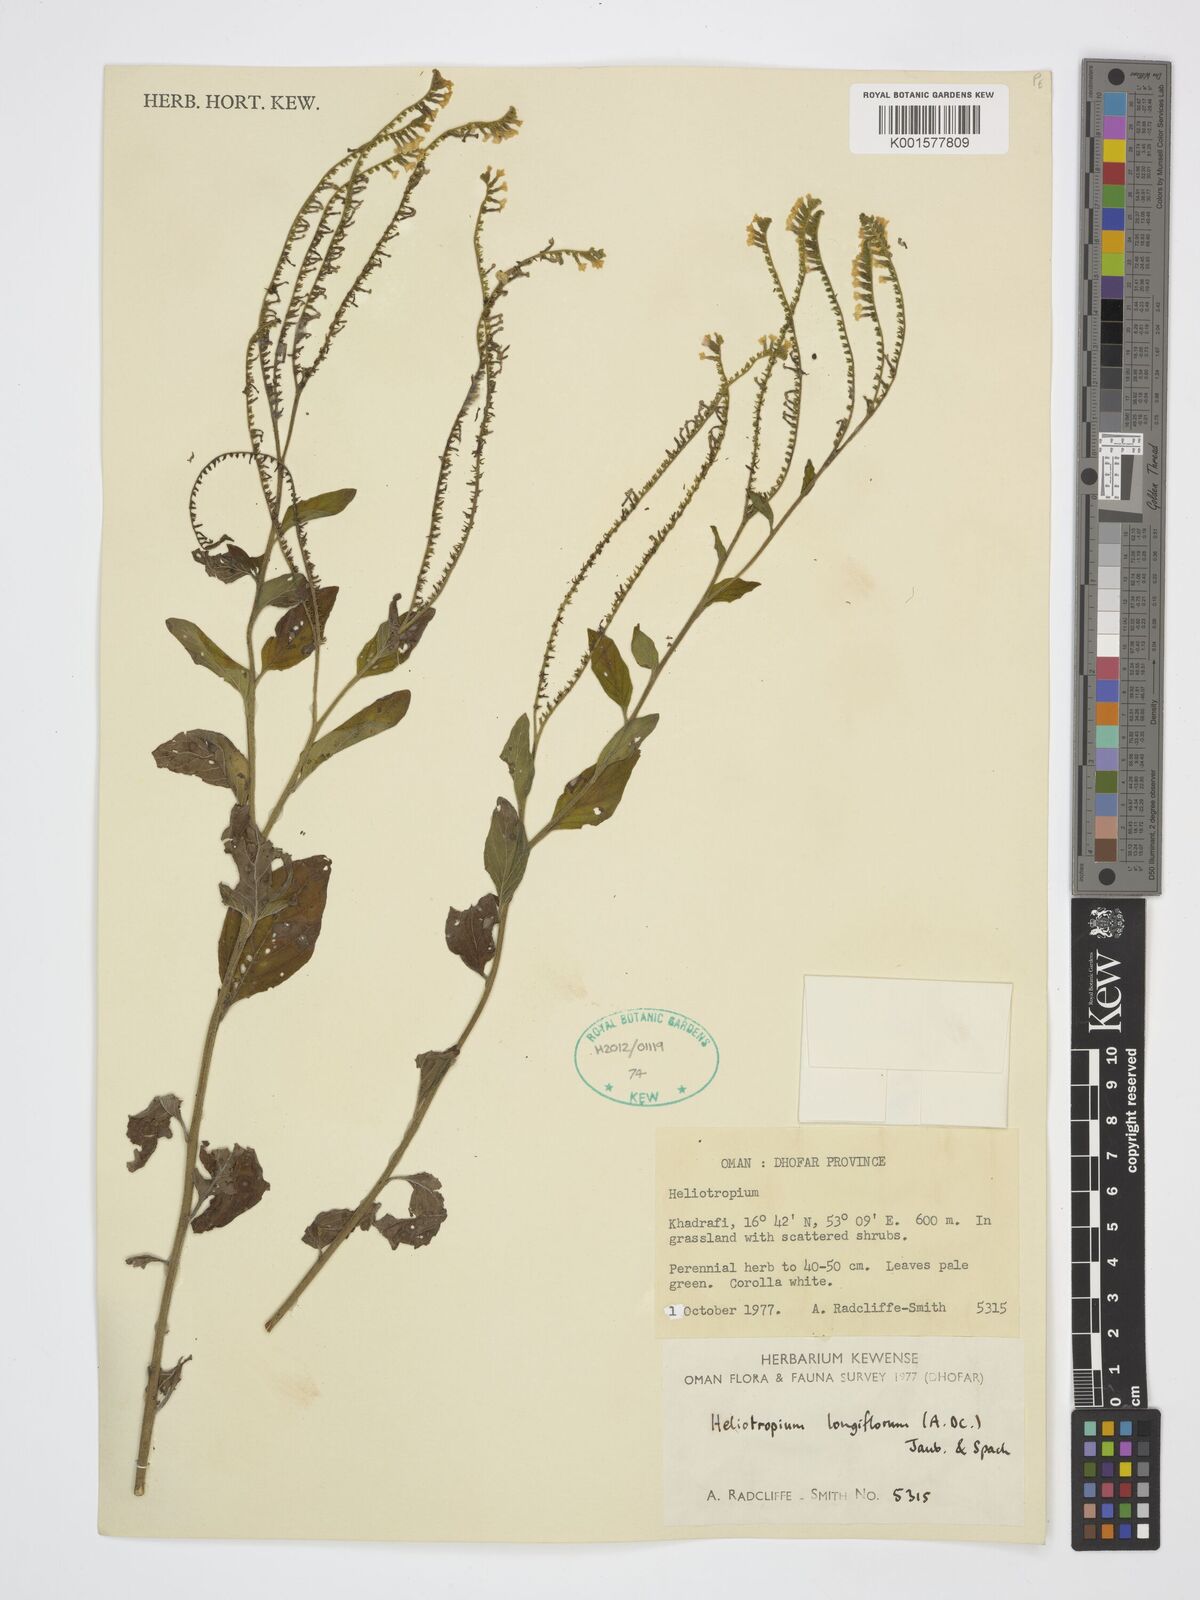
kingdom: Plantae
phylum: Tracheophyta
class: Magnoliopsida
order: Boraginales
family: Heliotropiaceae
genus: Heliotropium
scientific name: Heliotropium longiflorum
